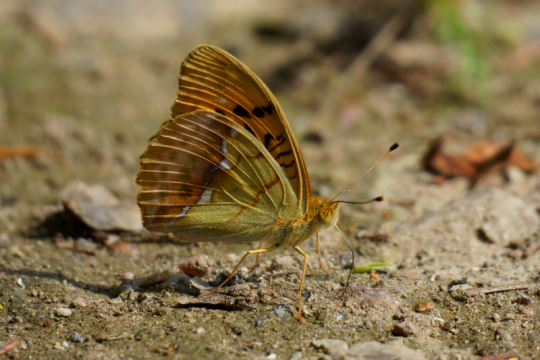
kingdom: Animalia
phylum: Arthropoda
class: Insecta
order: Lepidoptera
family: Nymphalidae
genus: Argyronome
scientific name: Argyronome laodice
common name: Pallas's Fritillary
